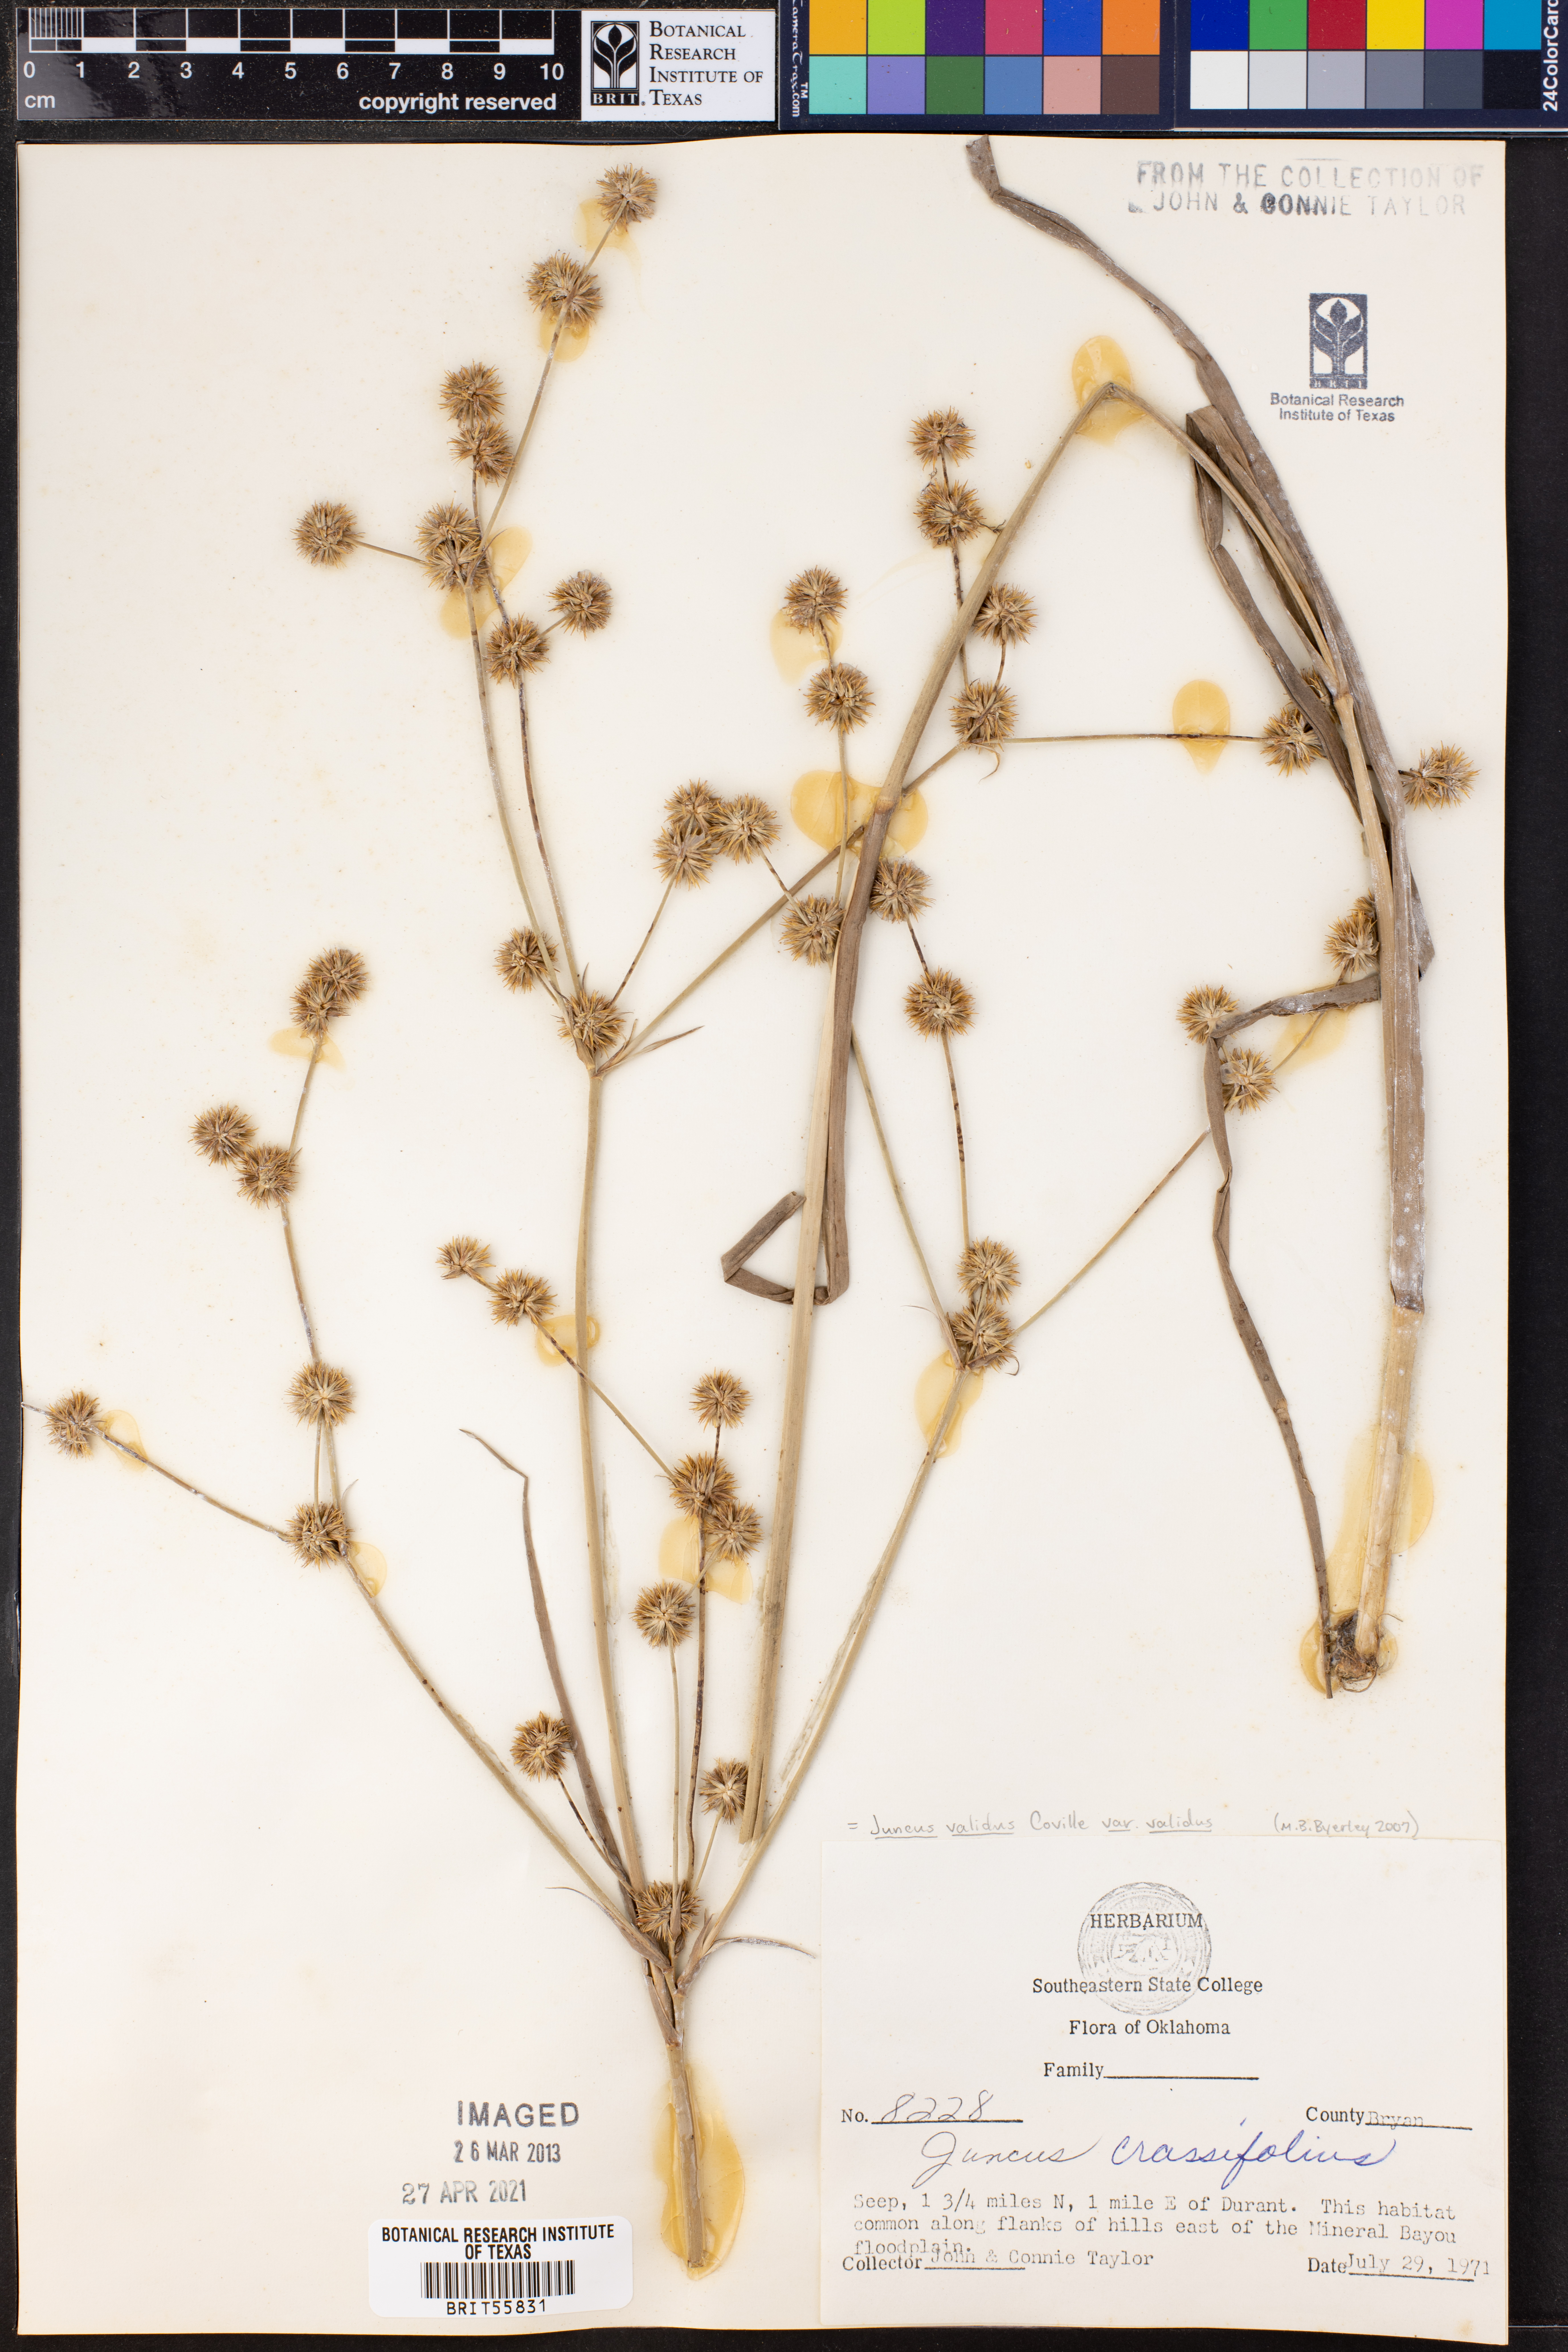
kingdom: Plantae
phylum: Tracheophyta
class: Liliopsida
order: Poales
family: Juncaceae
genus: Juncus
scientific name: Juncus validus
